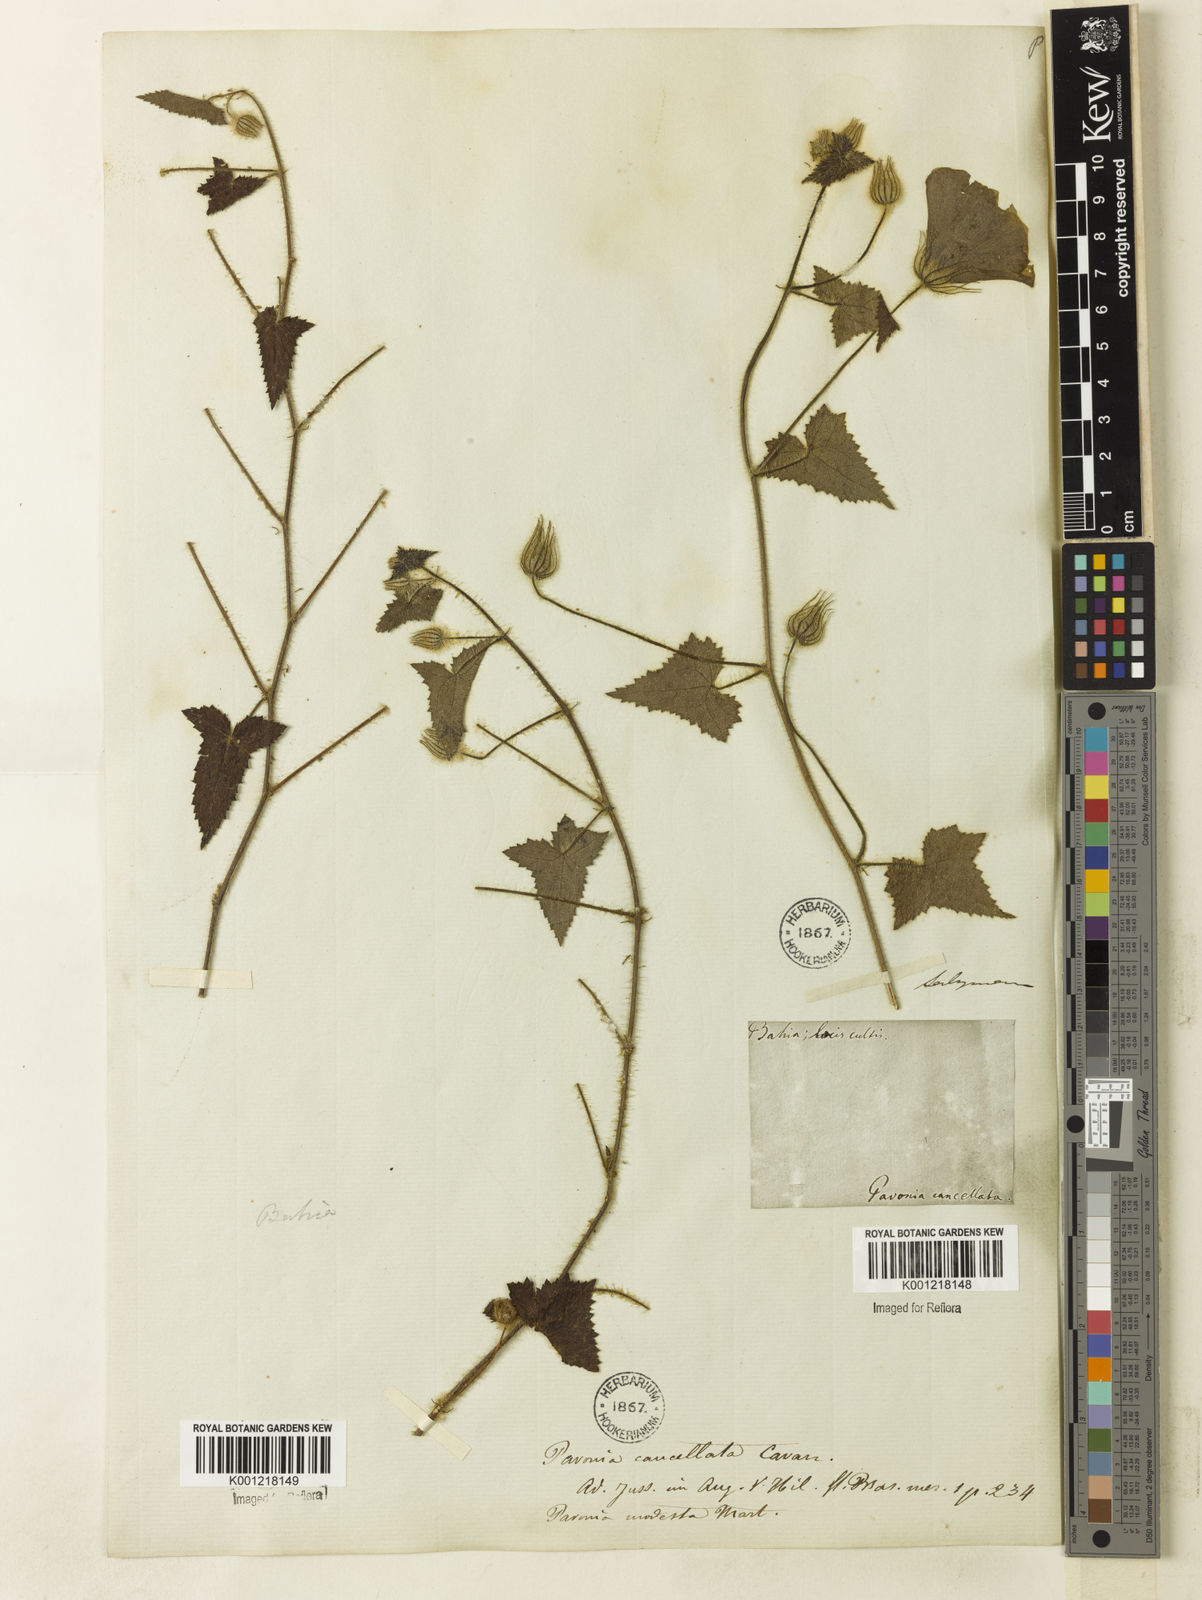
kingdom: Plantae
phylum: Tracheophyta
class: Magnoliopsida
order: Malvales
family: Malvaceae
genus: Pavonia
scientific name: Pavonia cancellata
